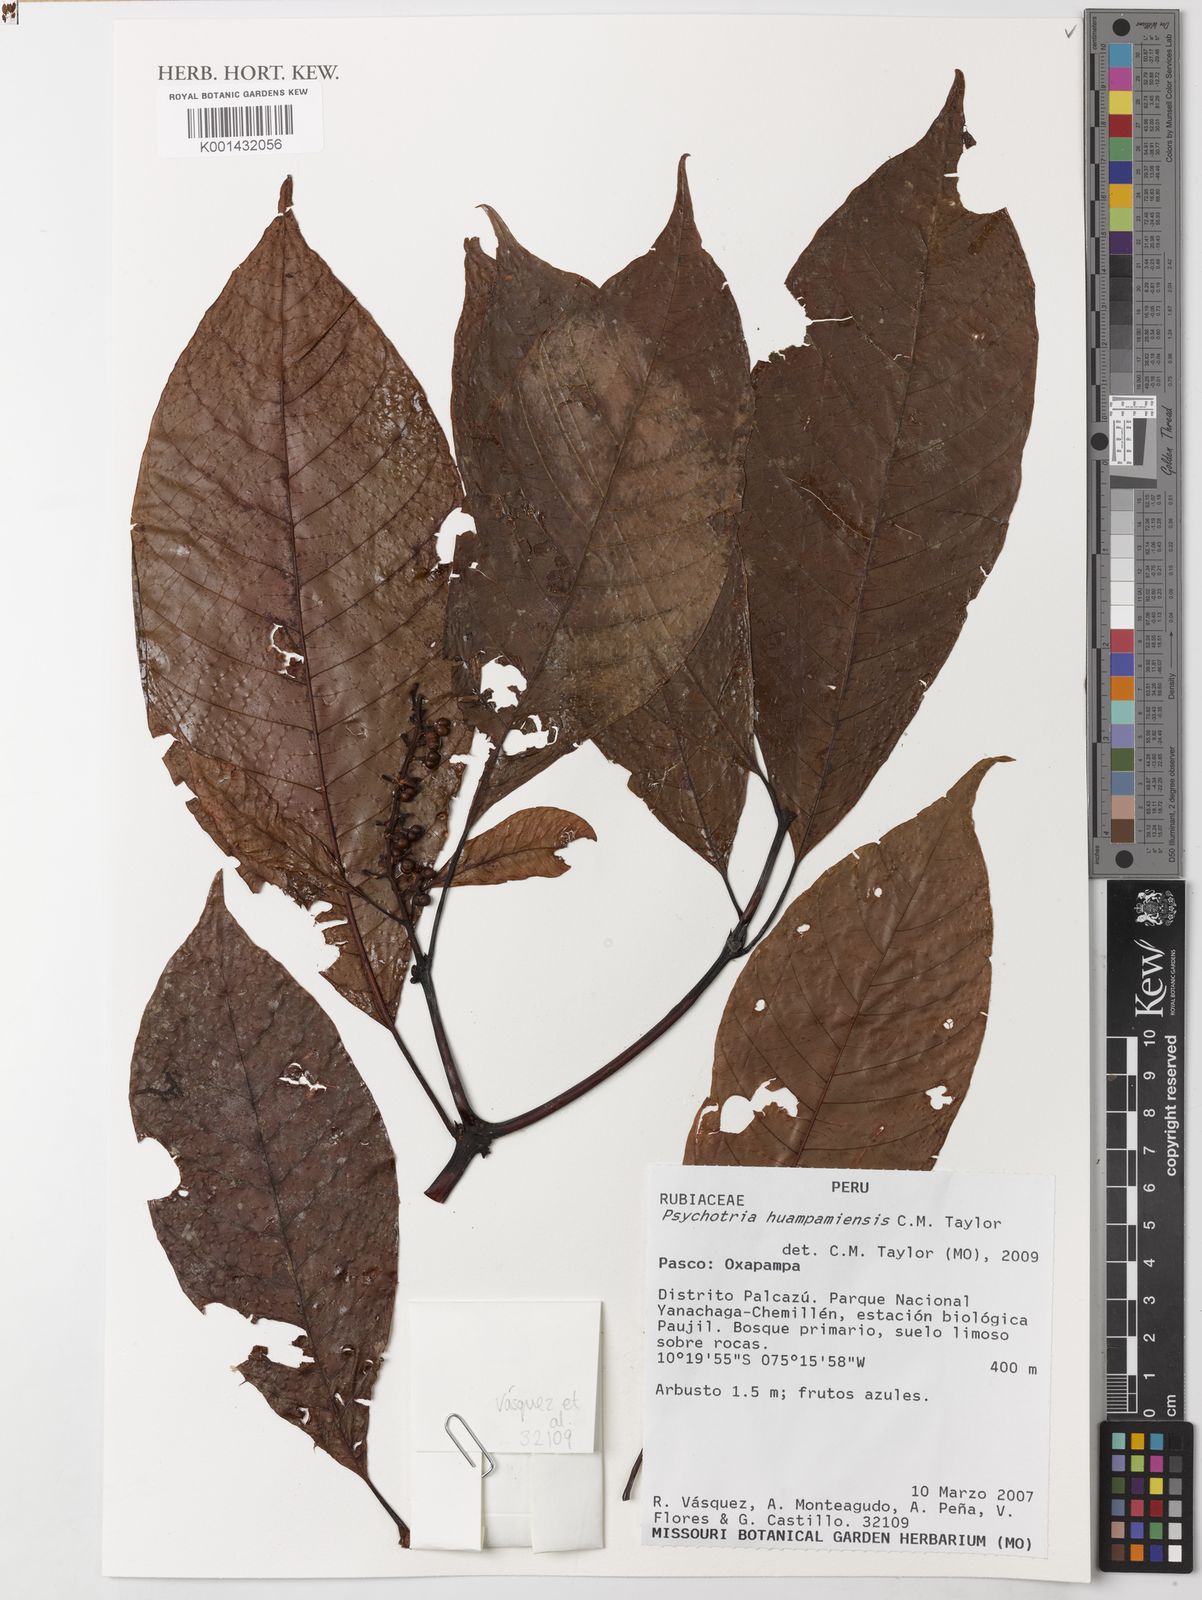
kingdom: Plantae
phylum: Tracheophyta
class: Magnoliopsida
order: Gentianales
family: Rubiaceae
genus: Palicourea
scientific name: Palicourea huampamiensis
